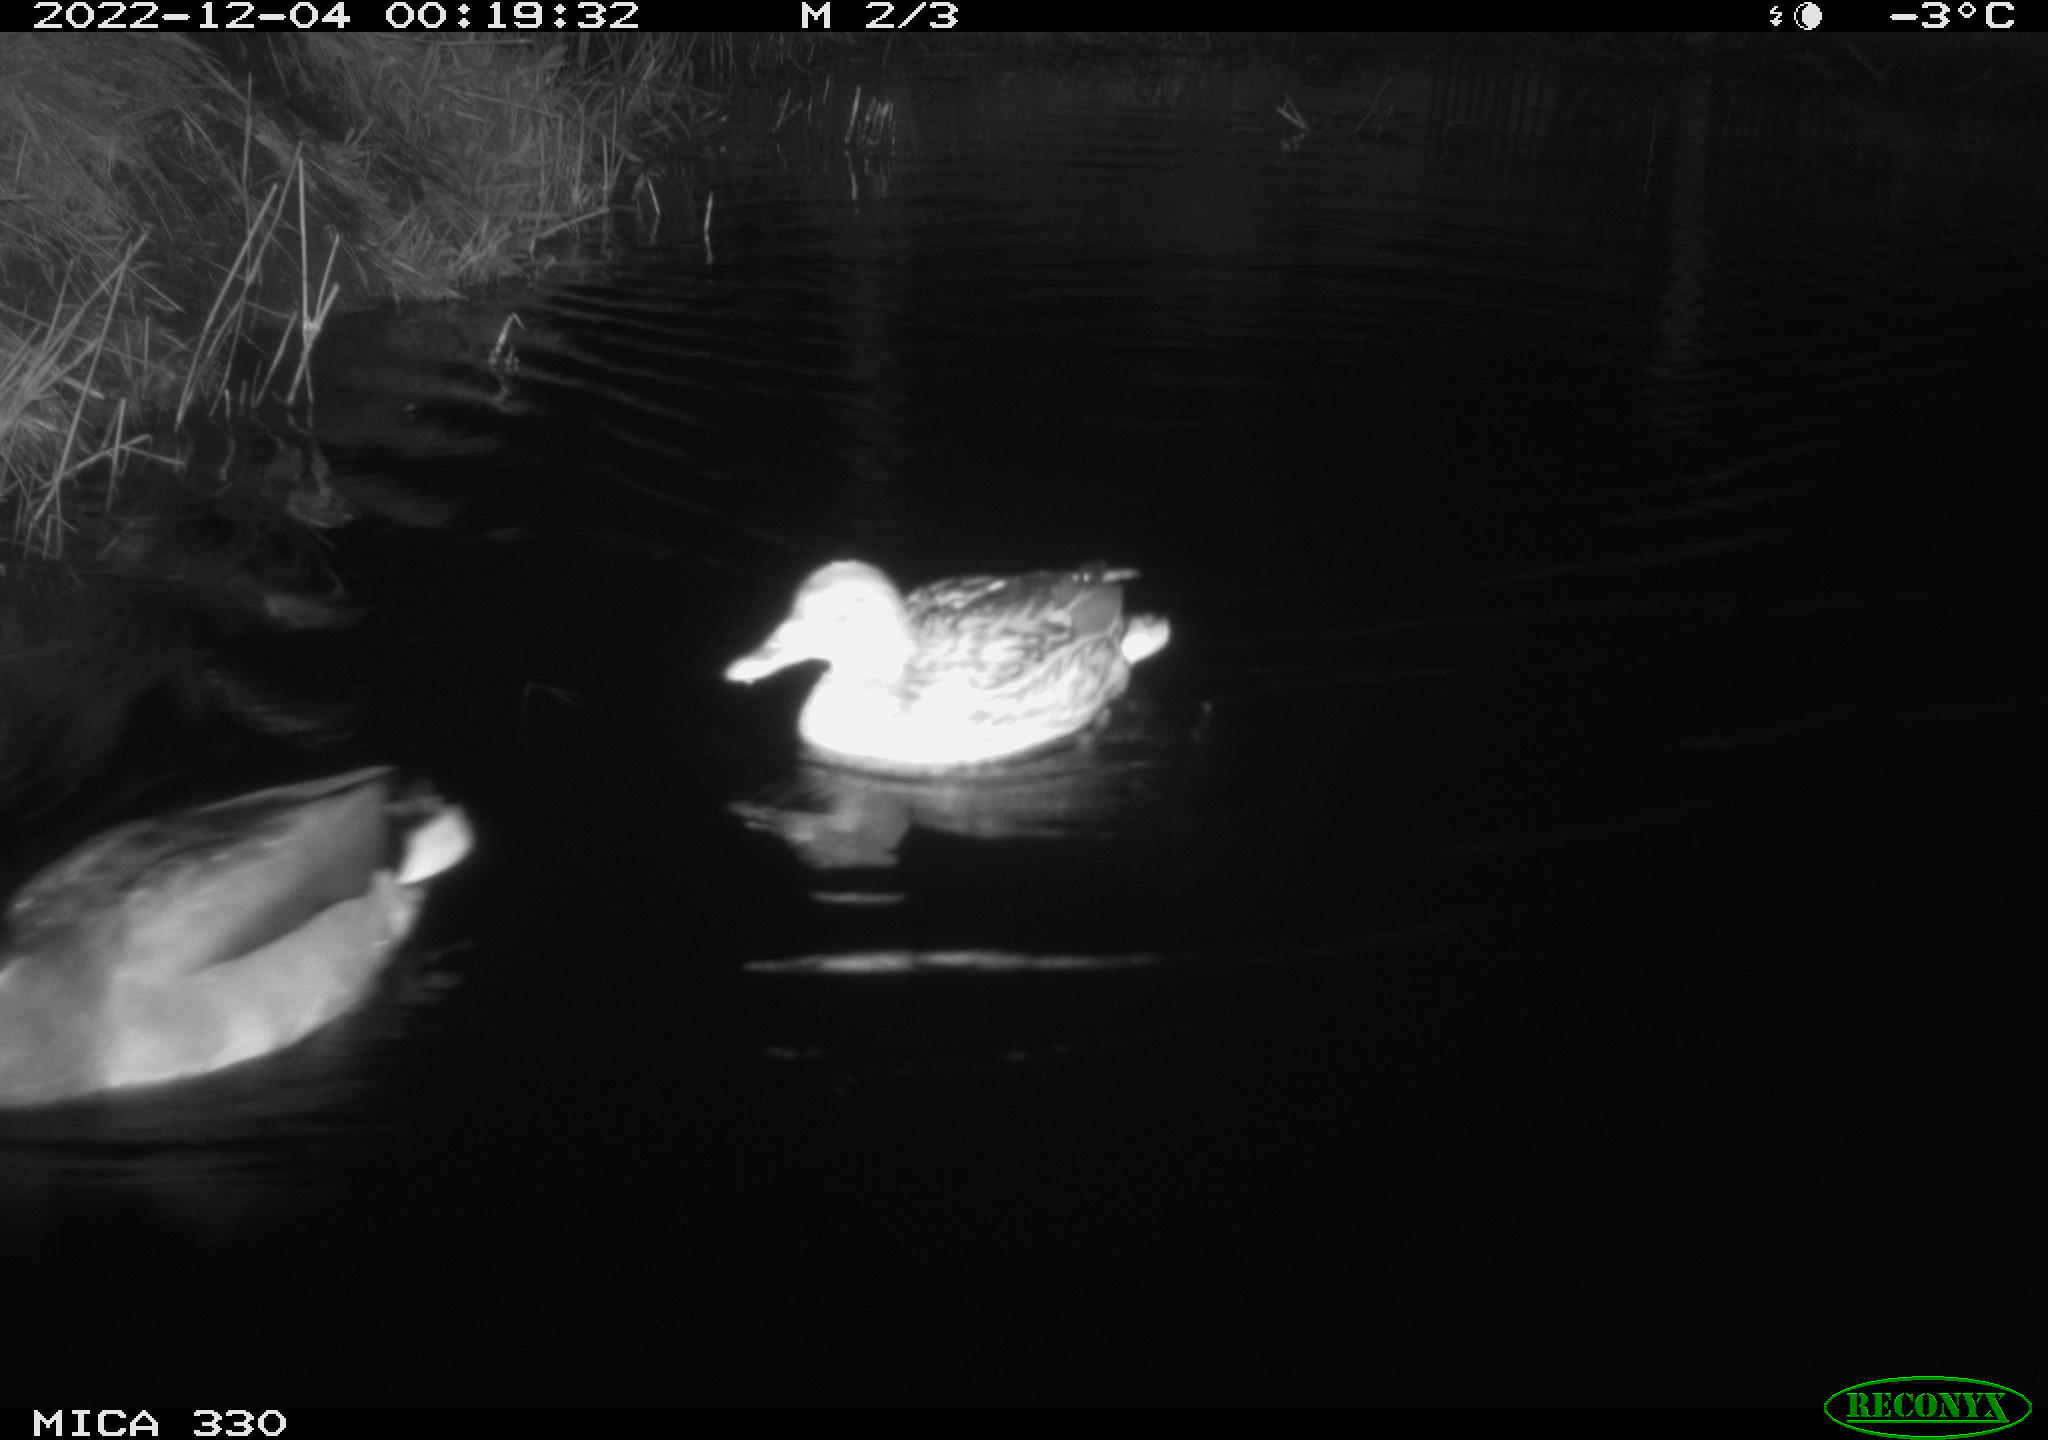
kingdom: Animalia
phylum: Chordata
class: Aves
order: Anseriformes
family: Anatidae
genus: Anas
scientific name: Anas
